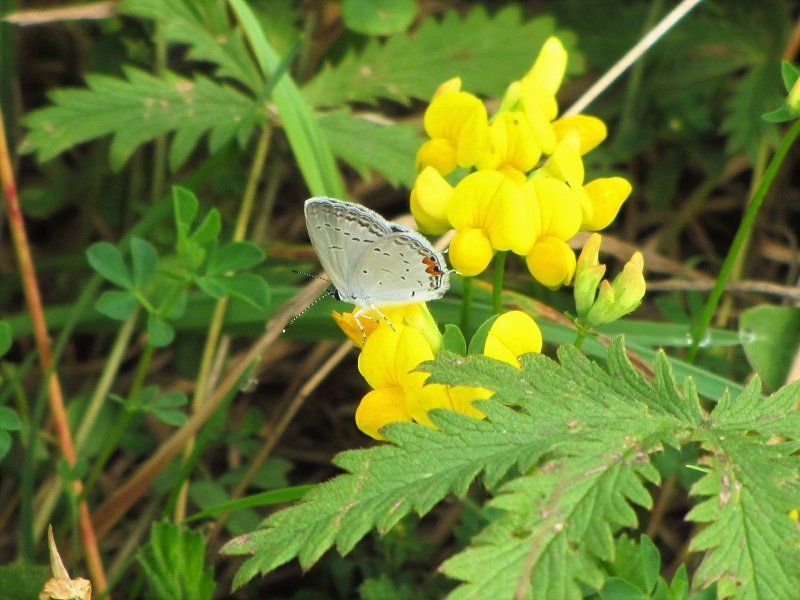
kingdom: Animalia
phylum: Arthropoda
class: Insecta
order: Lepidoptera
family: Lycaenidae
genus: Elkalyce
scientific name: Elkalyce comyntas
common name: Eastern Tailed-Blue
